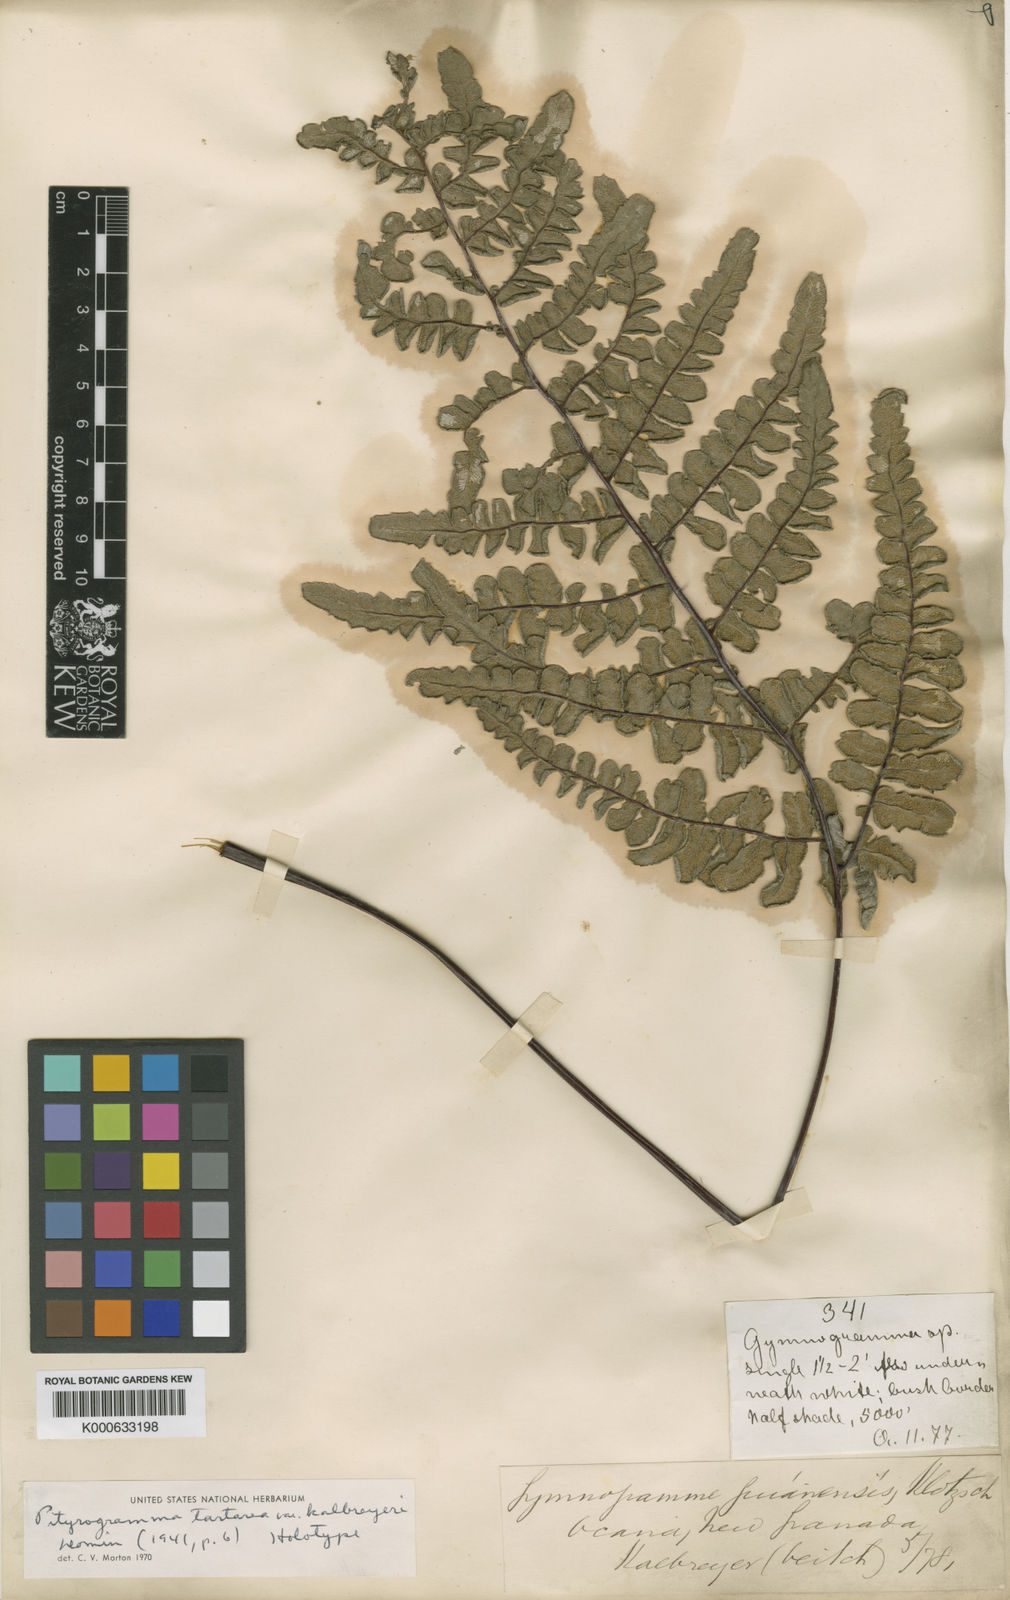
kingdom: Plantae
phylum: Tracheophyta
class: Polypodiopsida
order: Polypodiales
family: Pteridaceae
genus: Pityrogramma
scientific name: Pityrogramma ebenea
